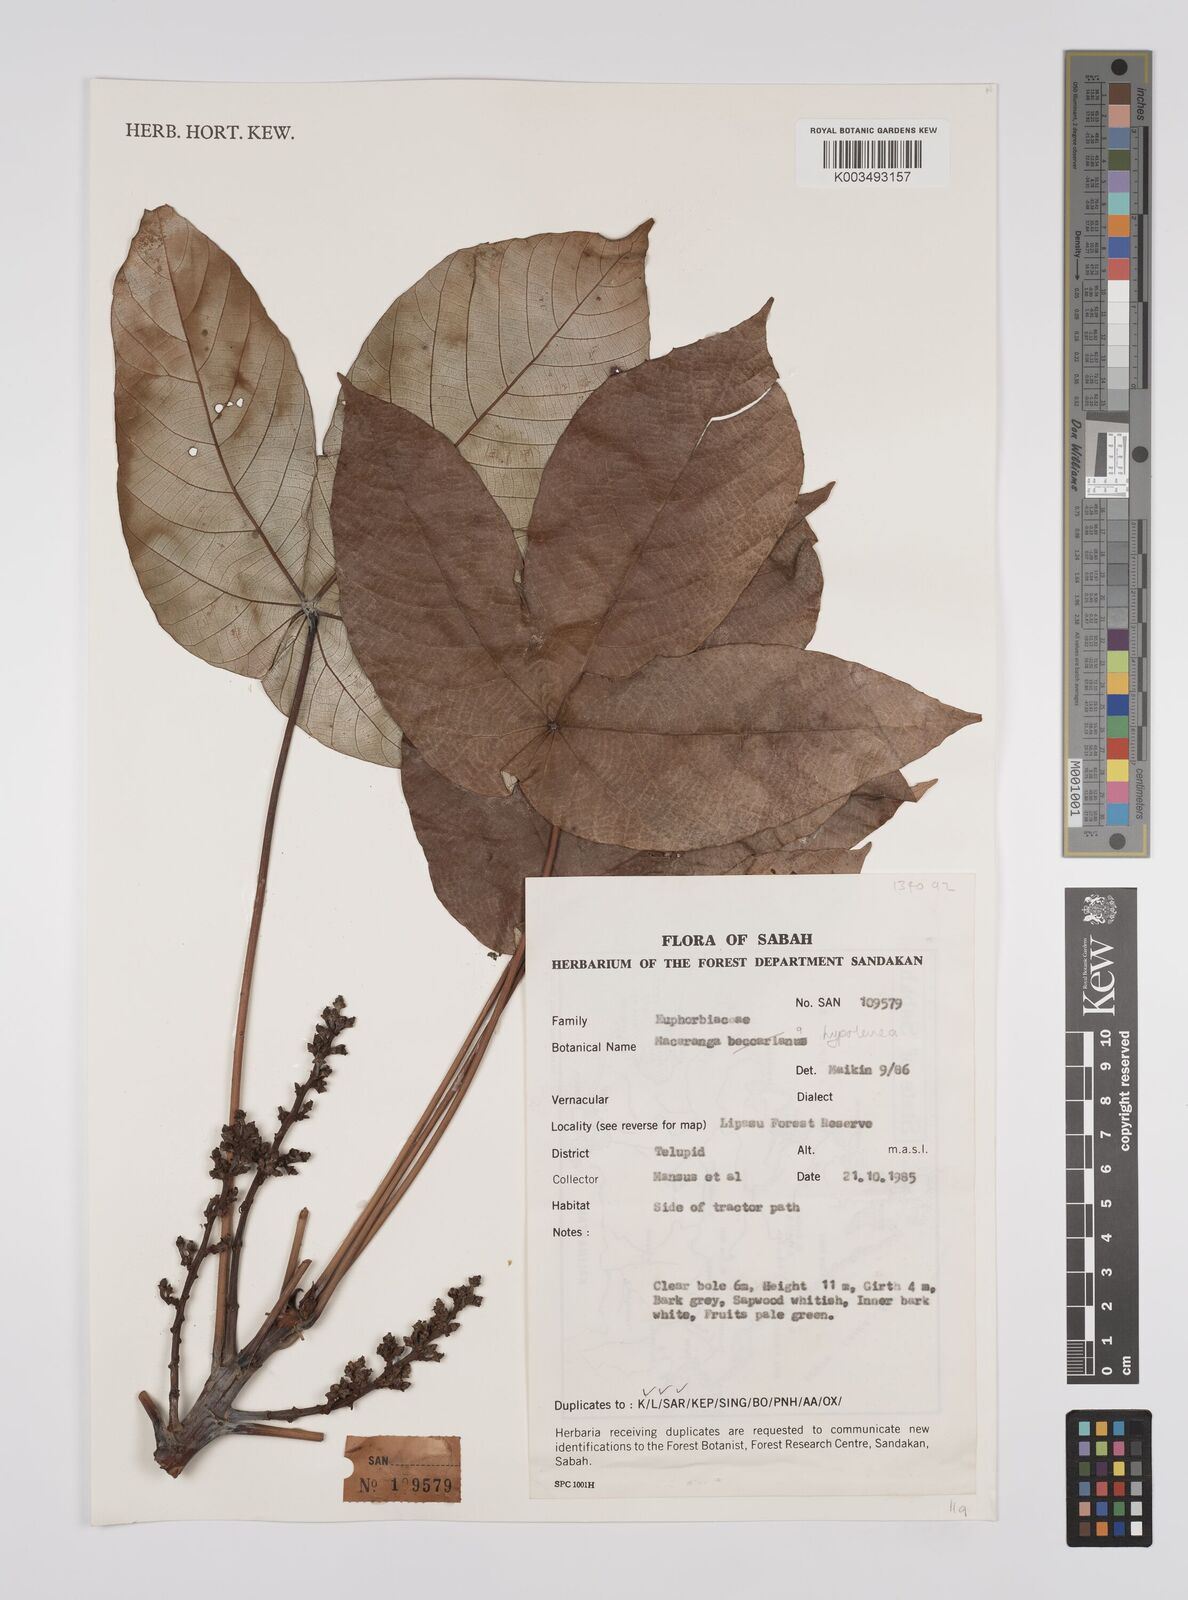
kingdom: Plantae
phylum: Tracheophyta
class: Magnoliopsida
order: Malpighiales
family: Euphorbiaceae
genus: Macaranga
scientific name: Macaranga hypoleuca
